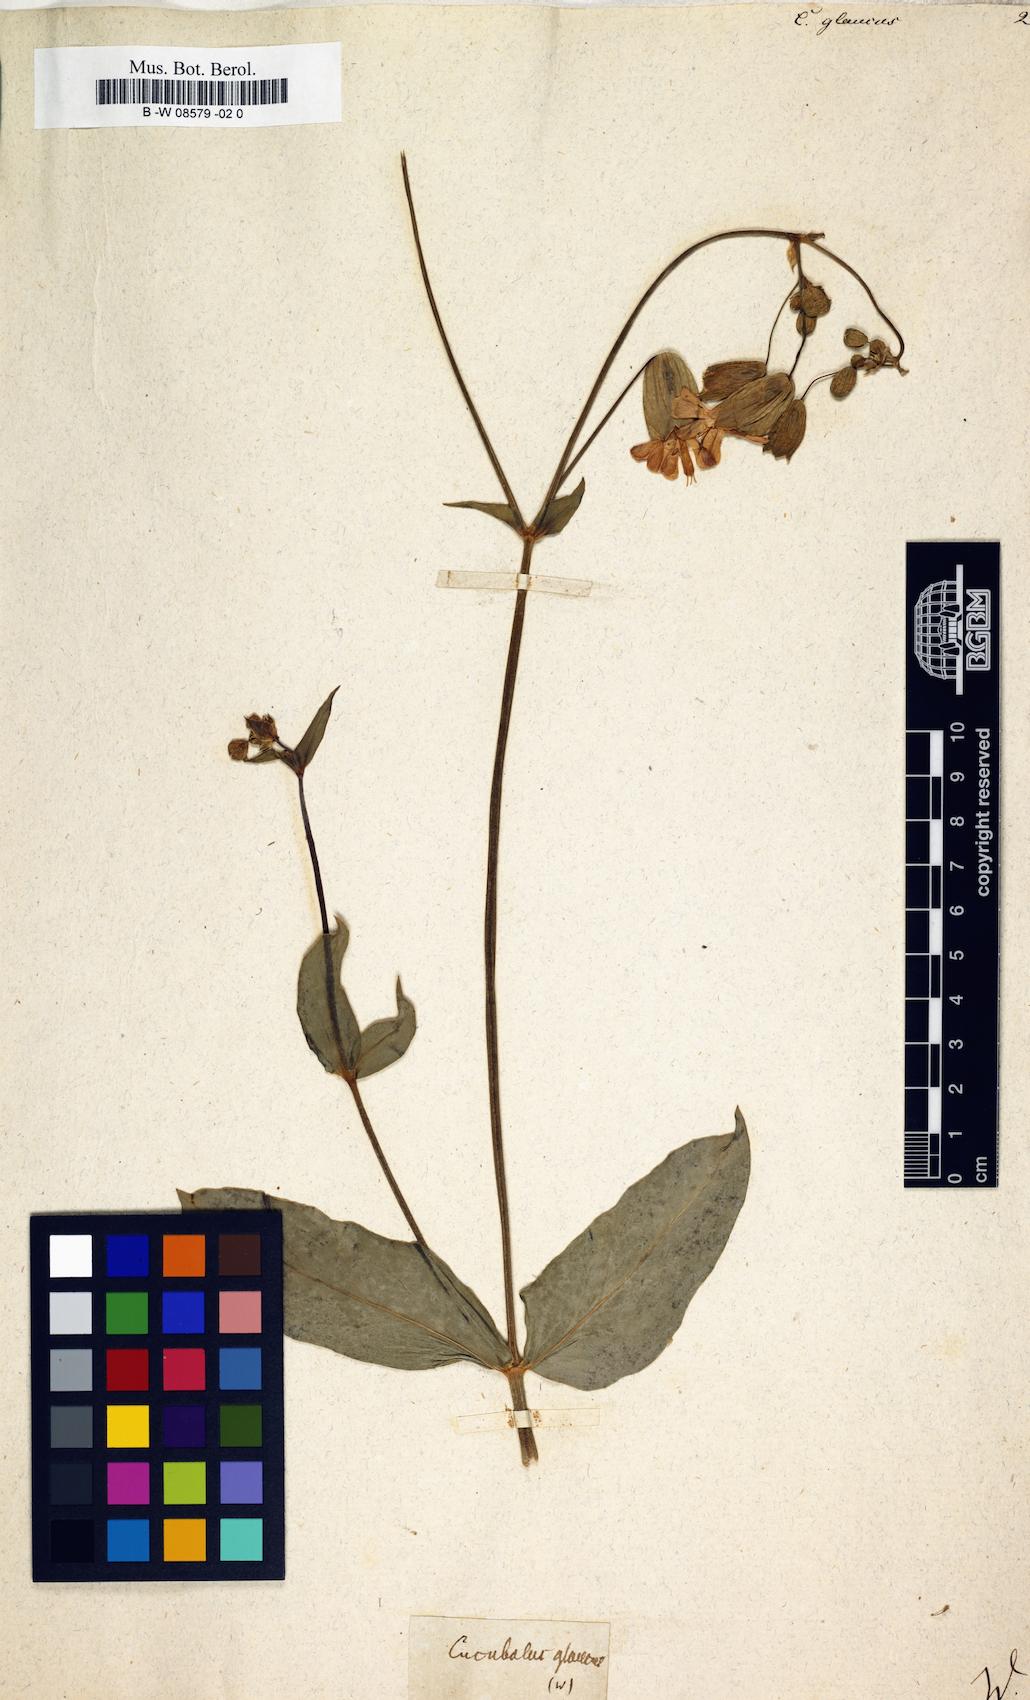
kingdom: Plantae
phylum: Tracheophyta
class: Magnoliopsida
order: Caryophyllales
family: Caryophyllaceae
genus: Atocion
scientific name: Atocion armeria
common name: Sweet william catchfly
